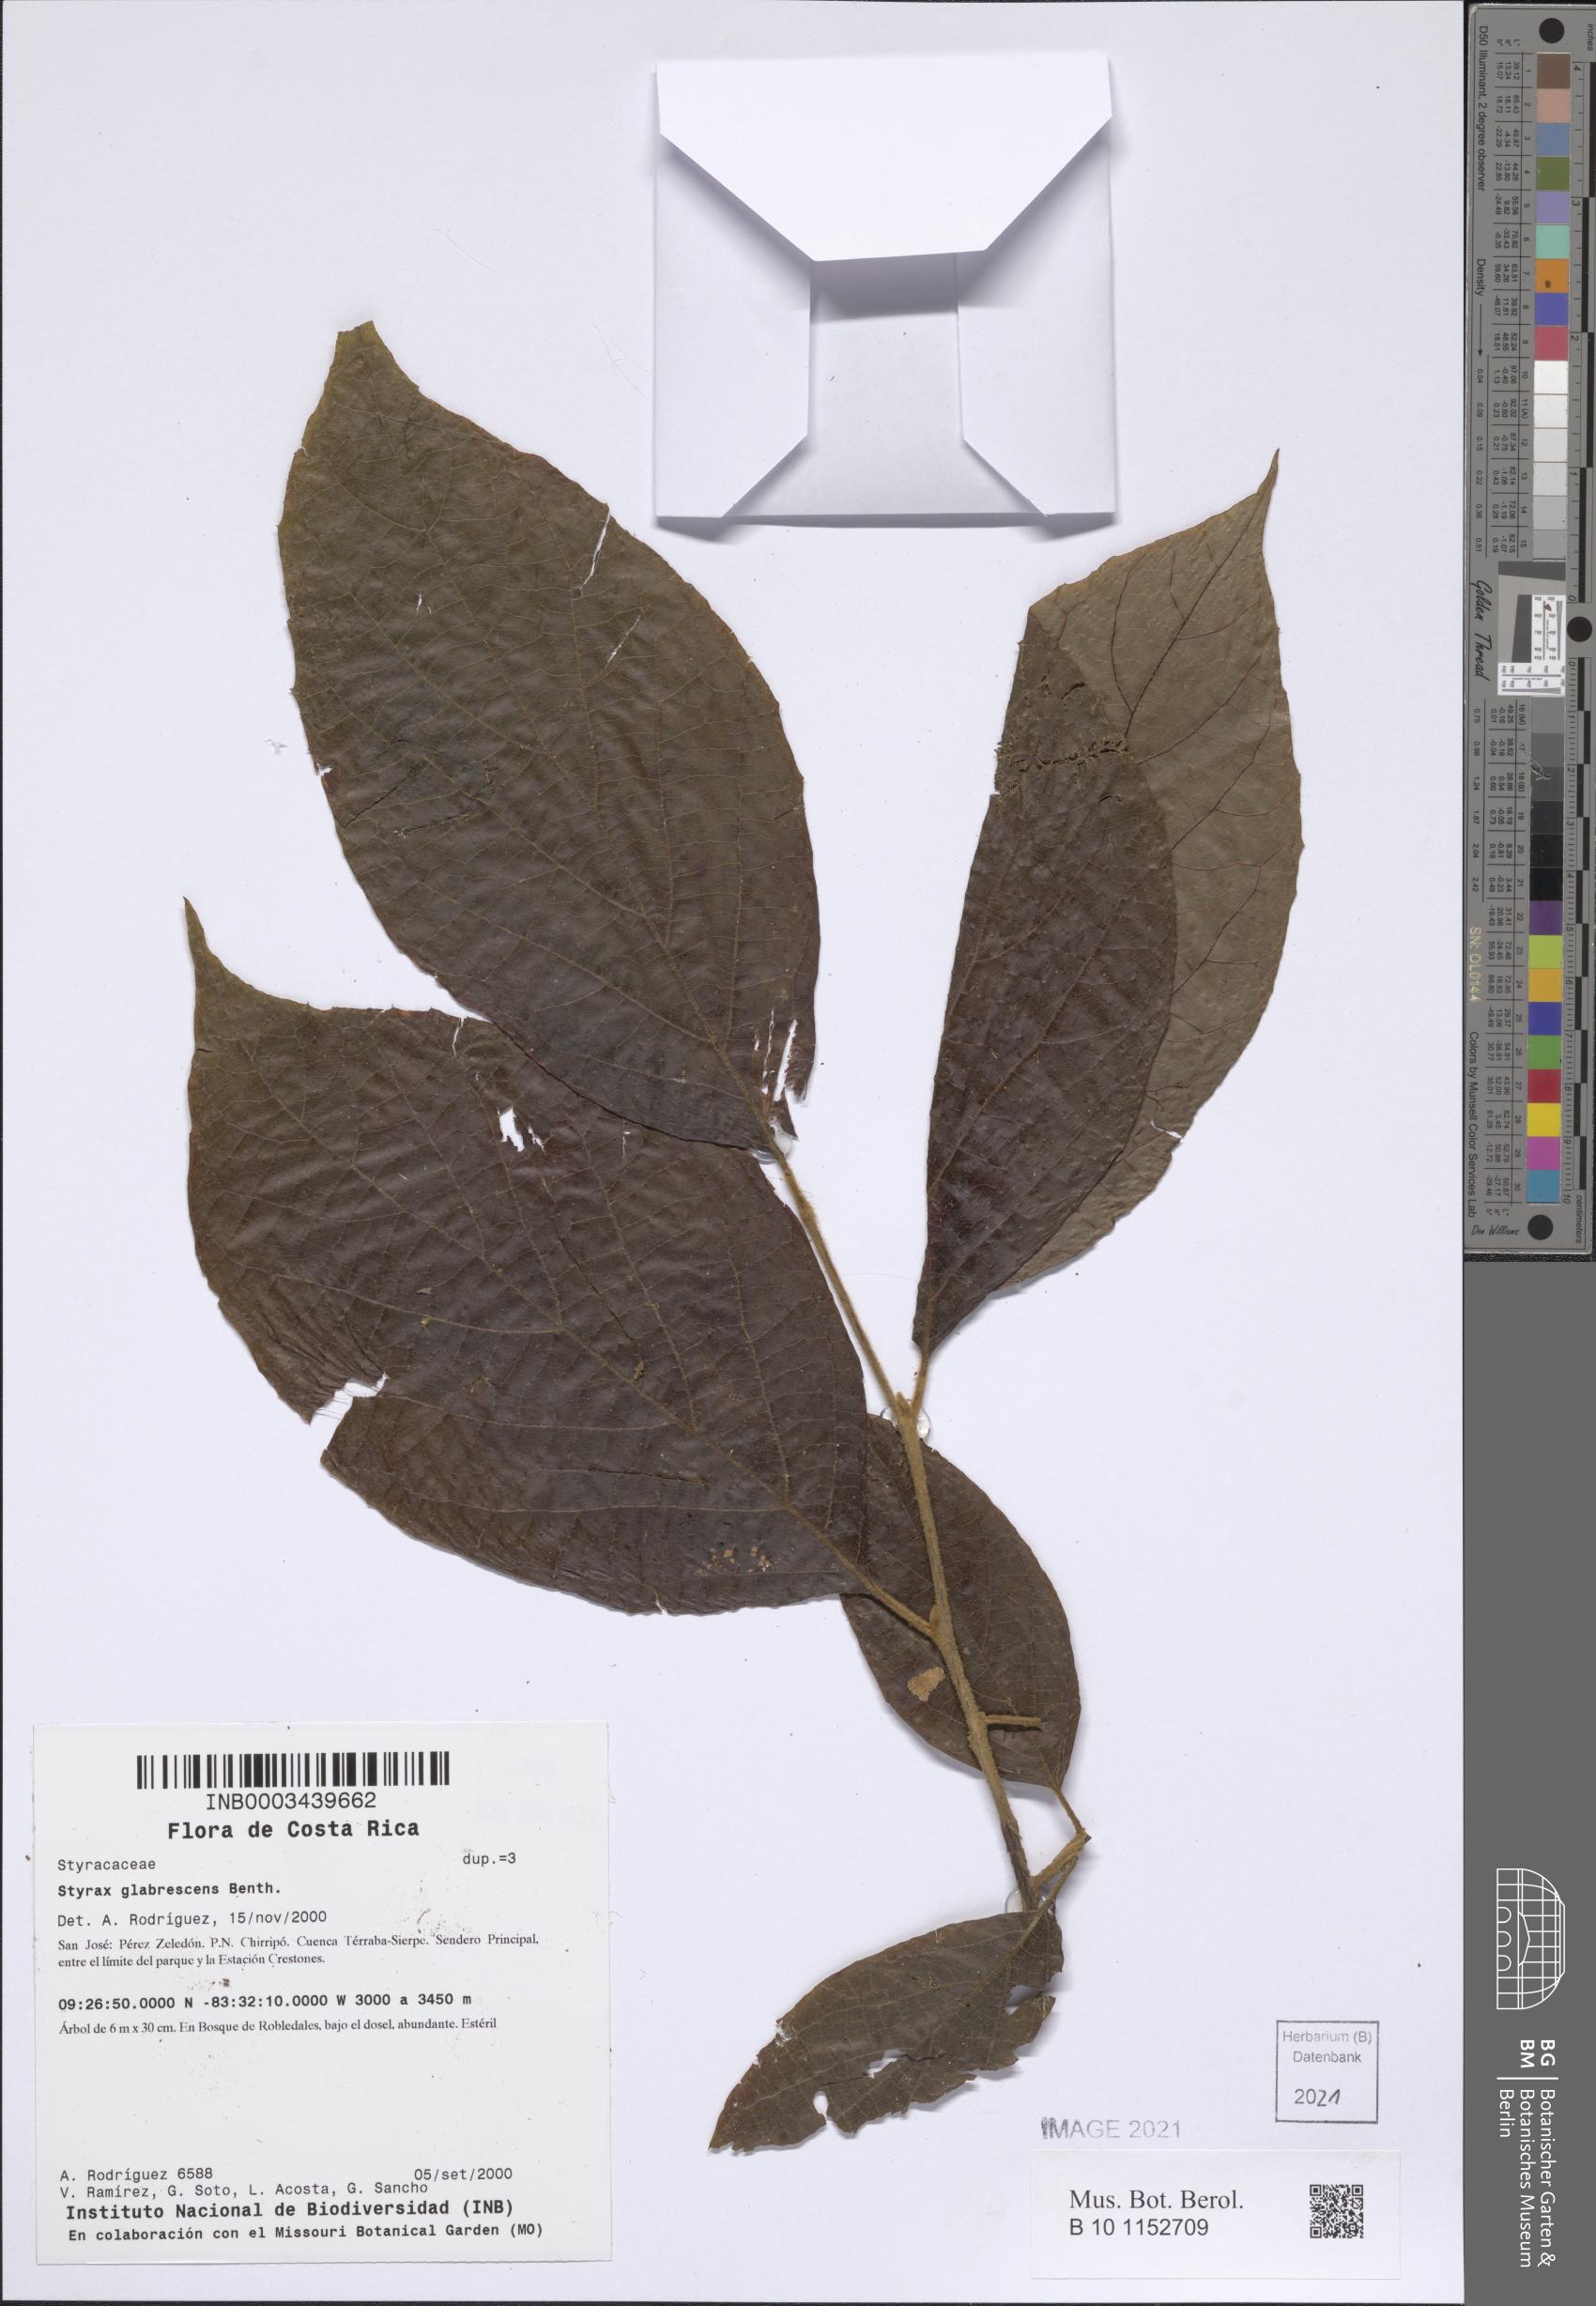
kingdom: Plantae
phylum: Tracheophyta
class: Magnoliopsida
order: Ericales
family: Styracaceae
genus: Styrax
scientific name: Styrax glabrescens
